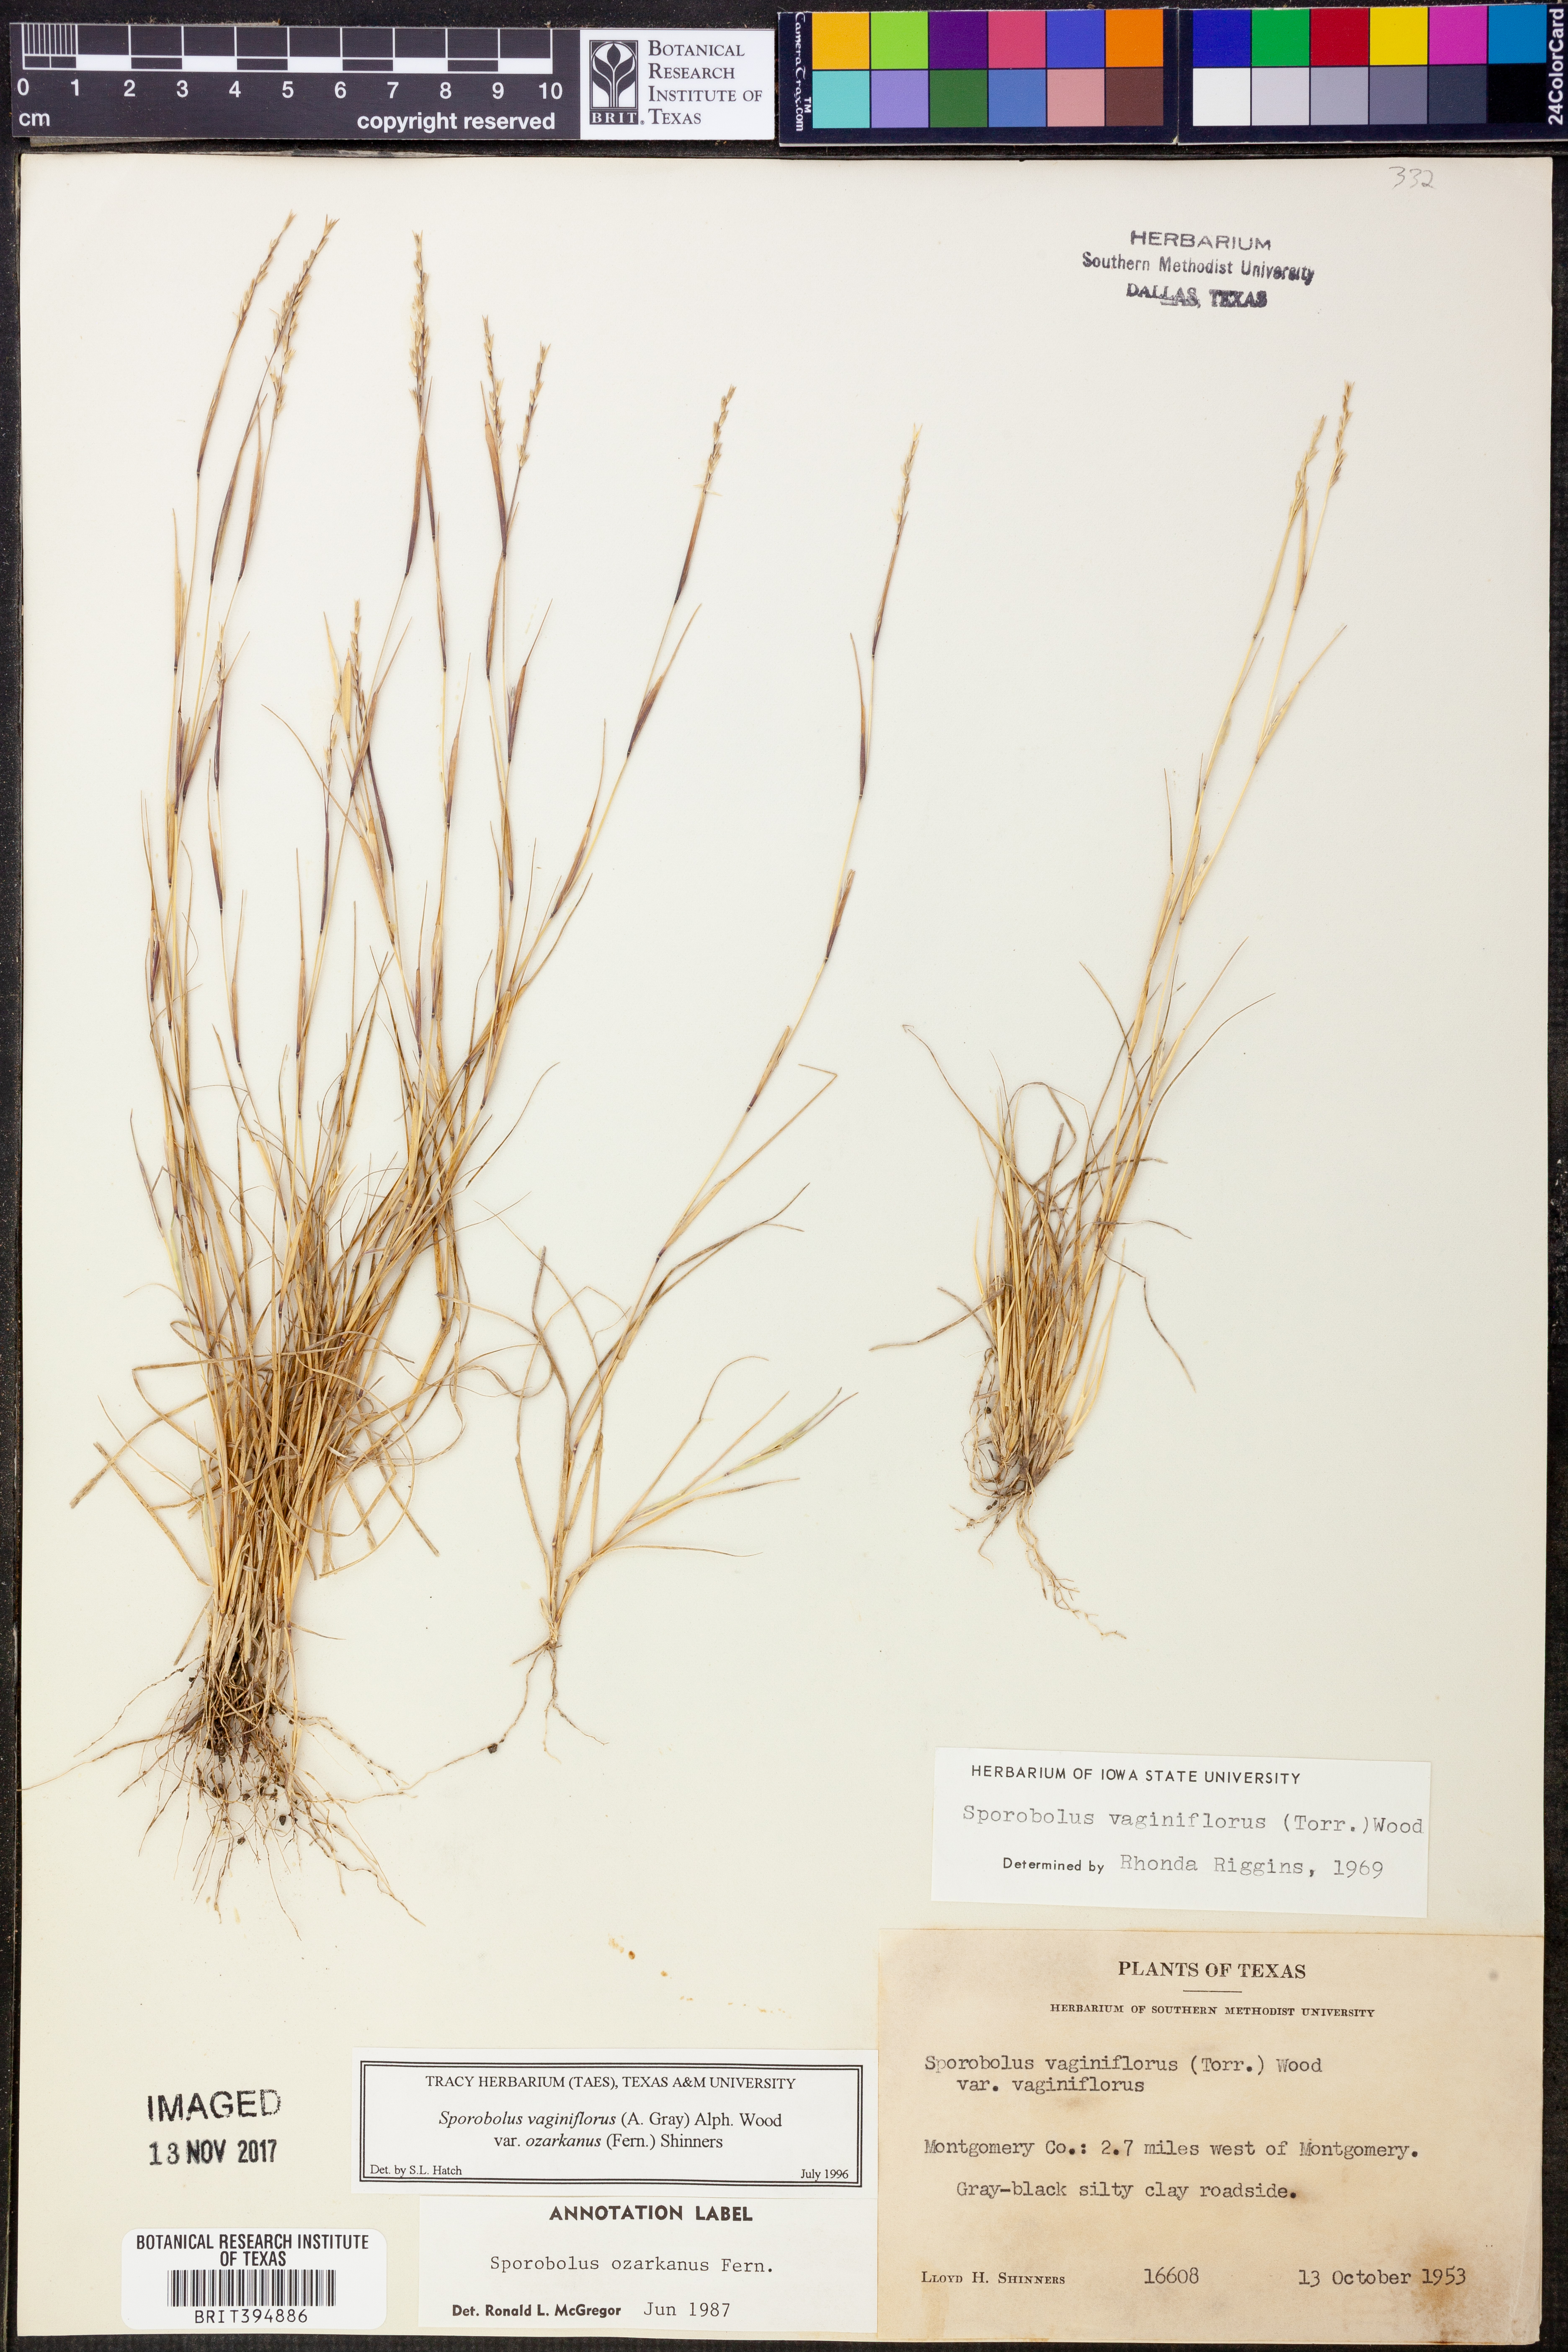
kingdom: Plantae
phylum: Tracheophyta
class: Liliopsida
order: Poales
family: Poaceae
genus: Sporobolus
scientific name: Sporobolus neglectus
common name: Annual dropseed
